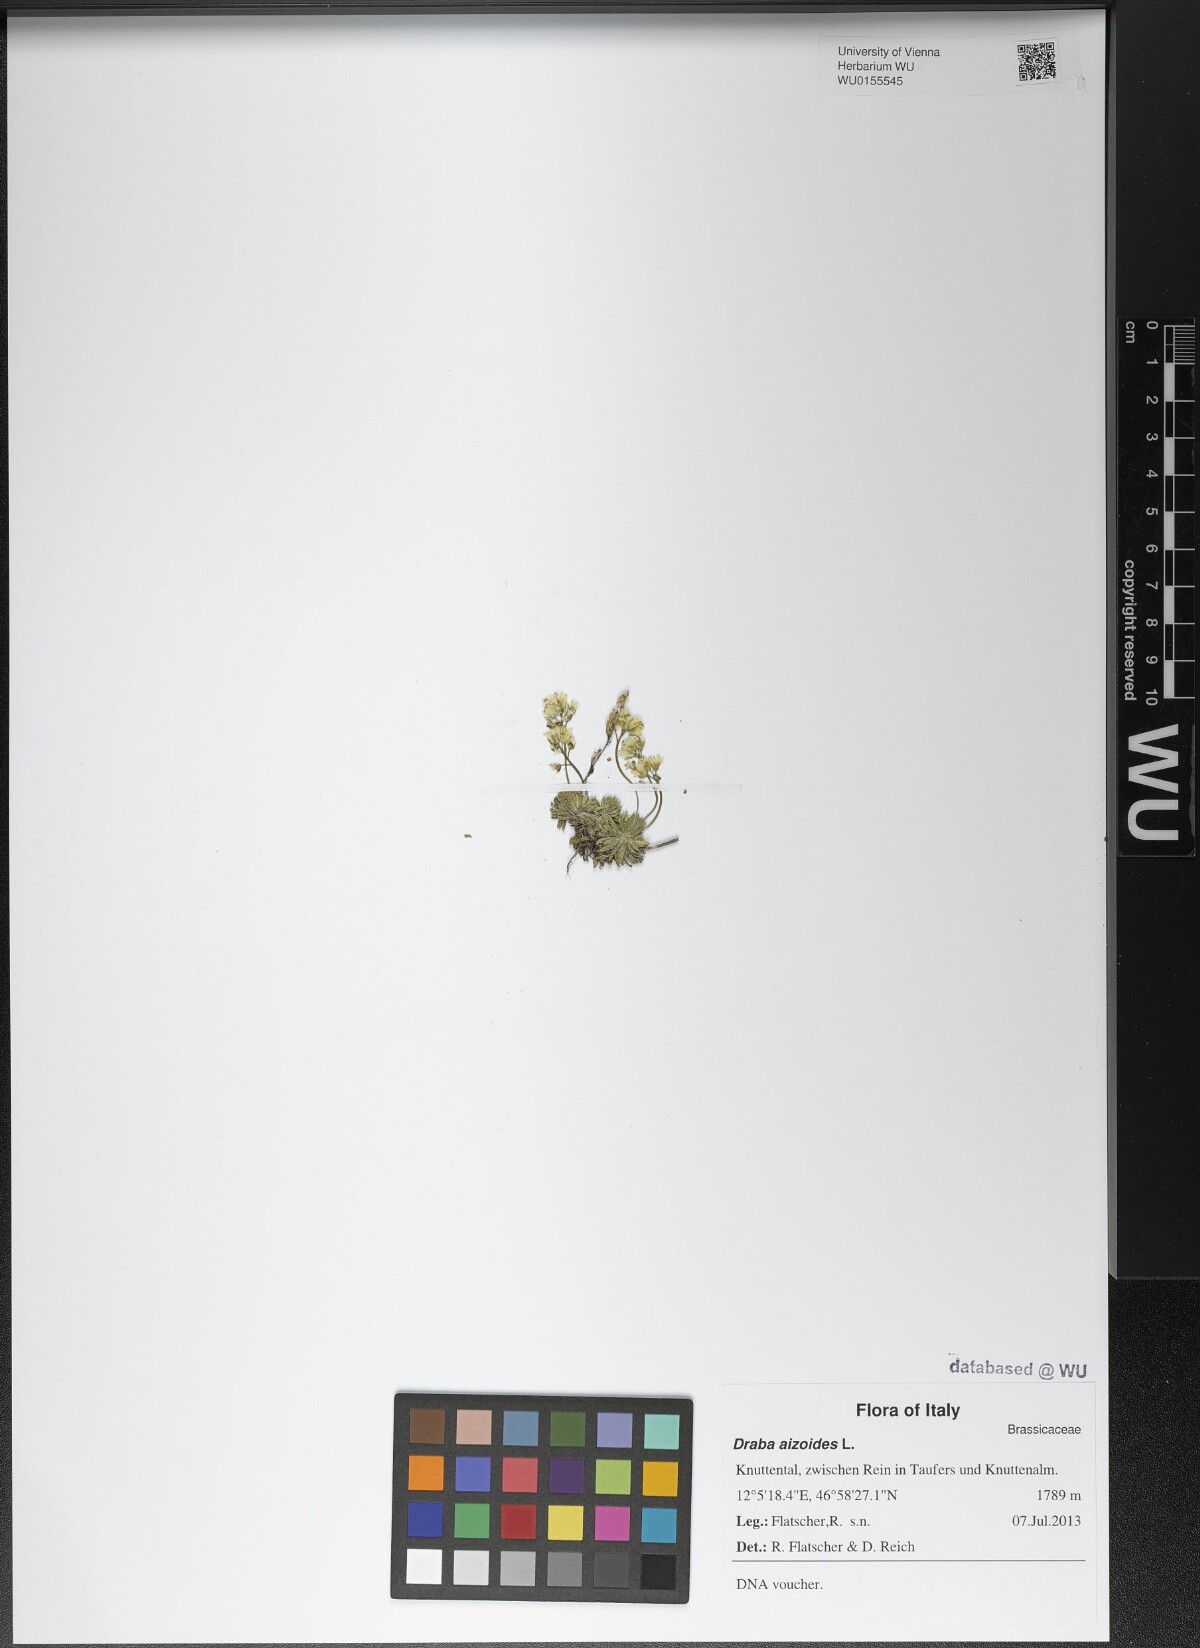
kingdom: Plantae
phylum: Tracheophyta
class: Magnoliopsida
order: Brassicales
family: Brassicaceae
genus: Draba
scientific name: Draba aizoides
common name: Yellow whitlowgrass
